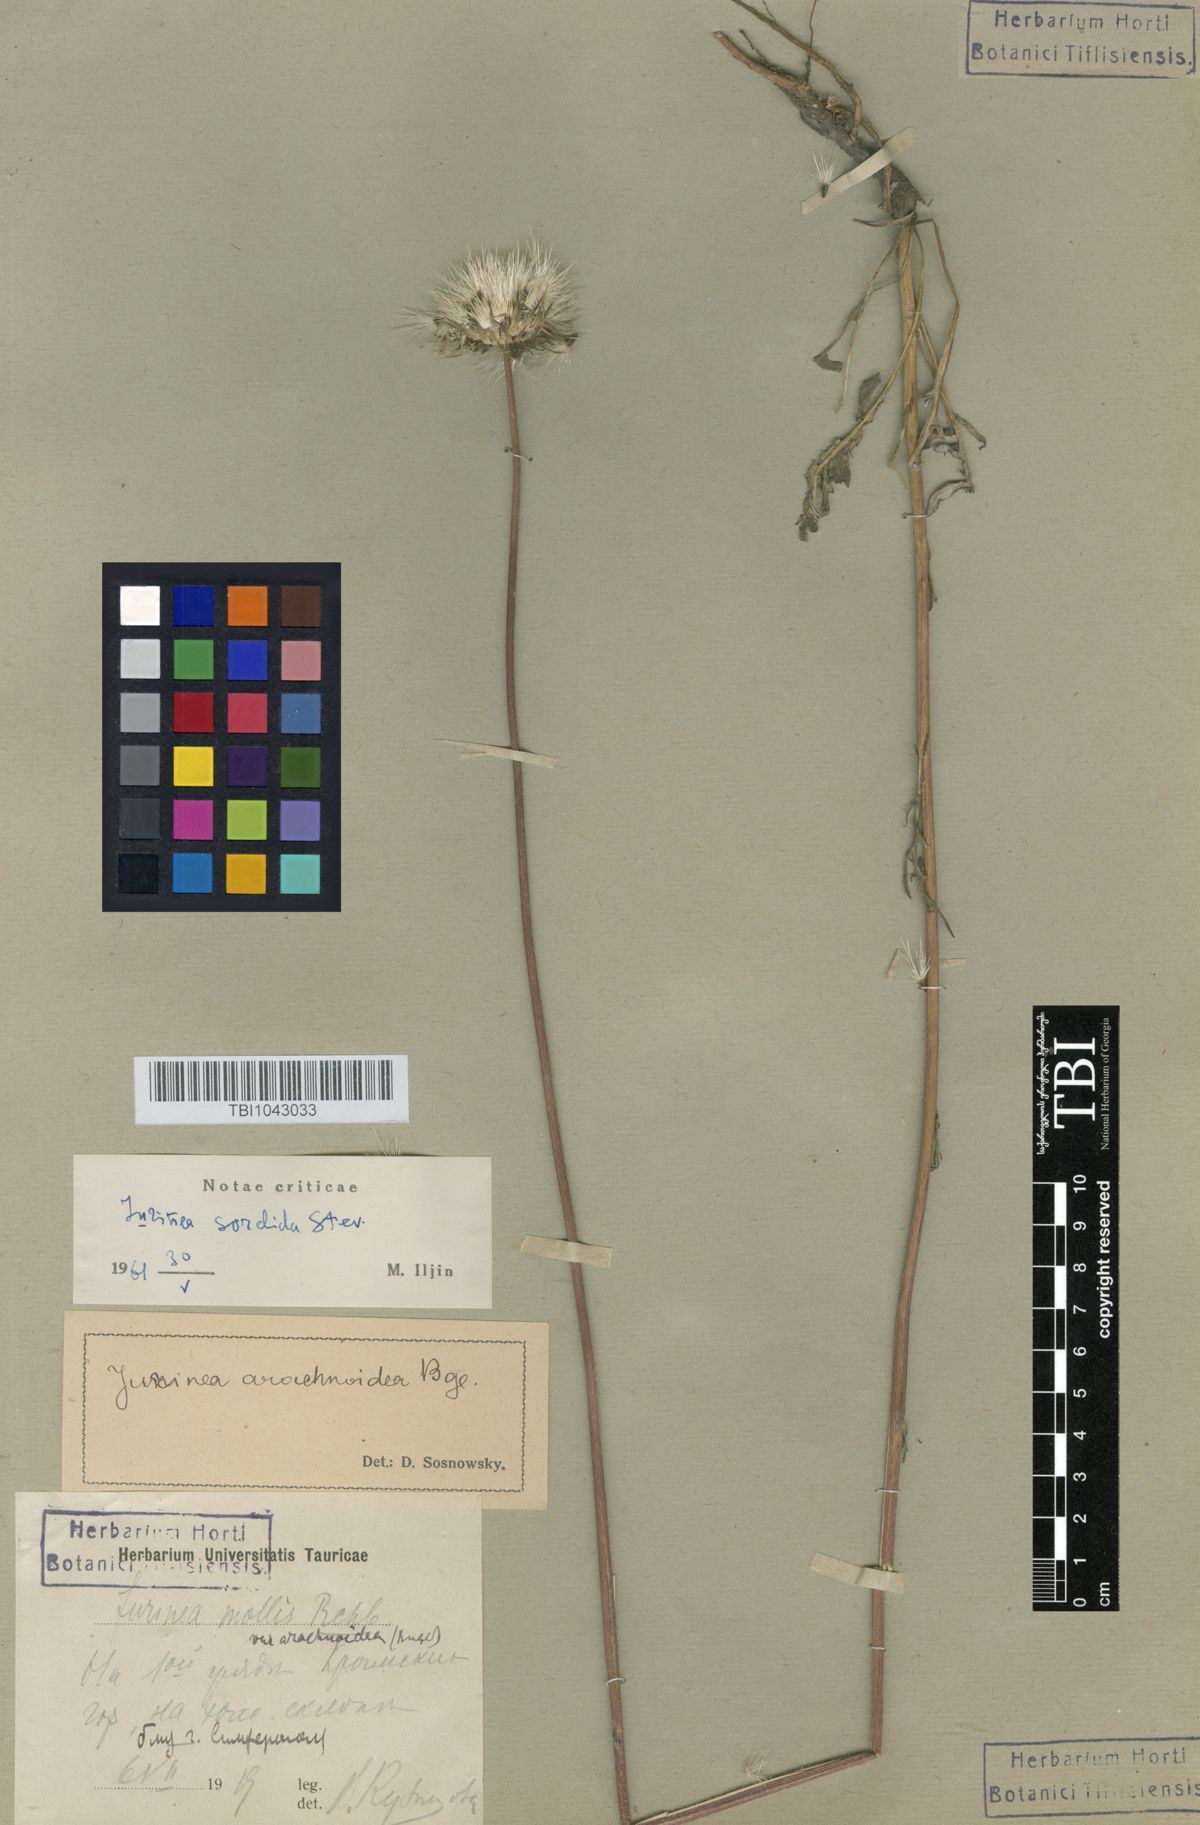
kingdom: Plantae
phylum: Tracheophyta
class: Magnoliopsida
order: Asterales
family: Asteraceae
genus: Jurinea
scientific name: Jurinea roegneri
